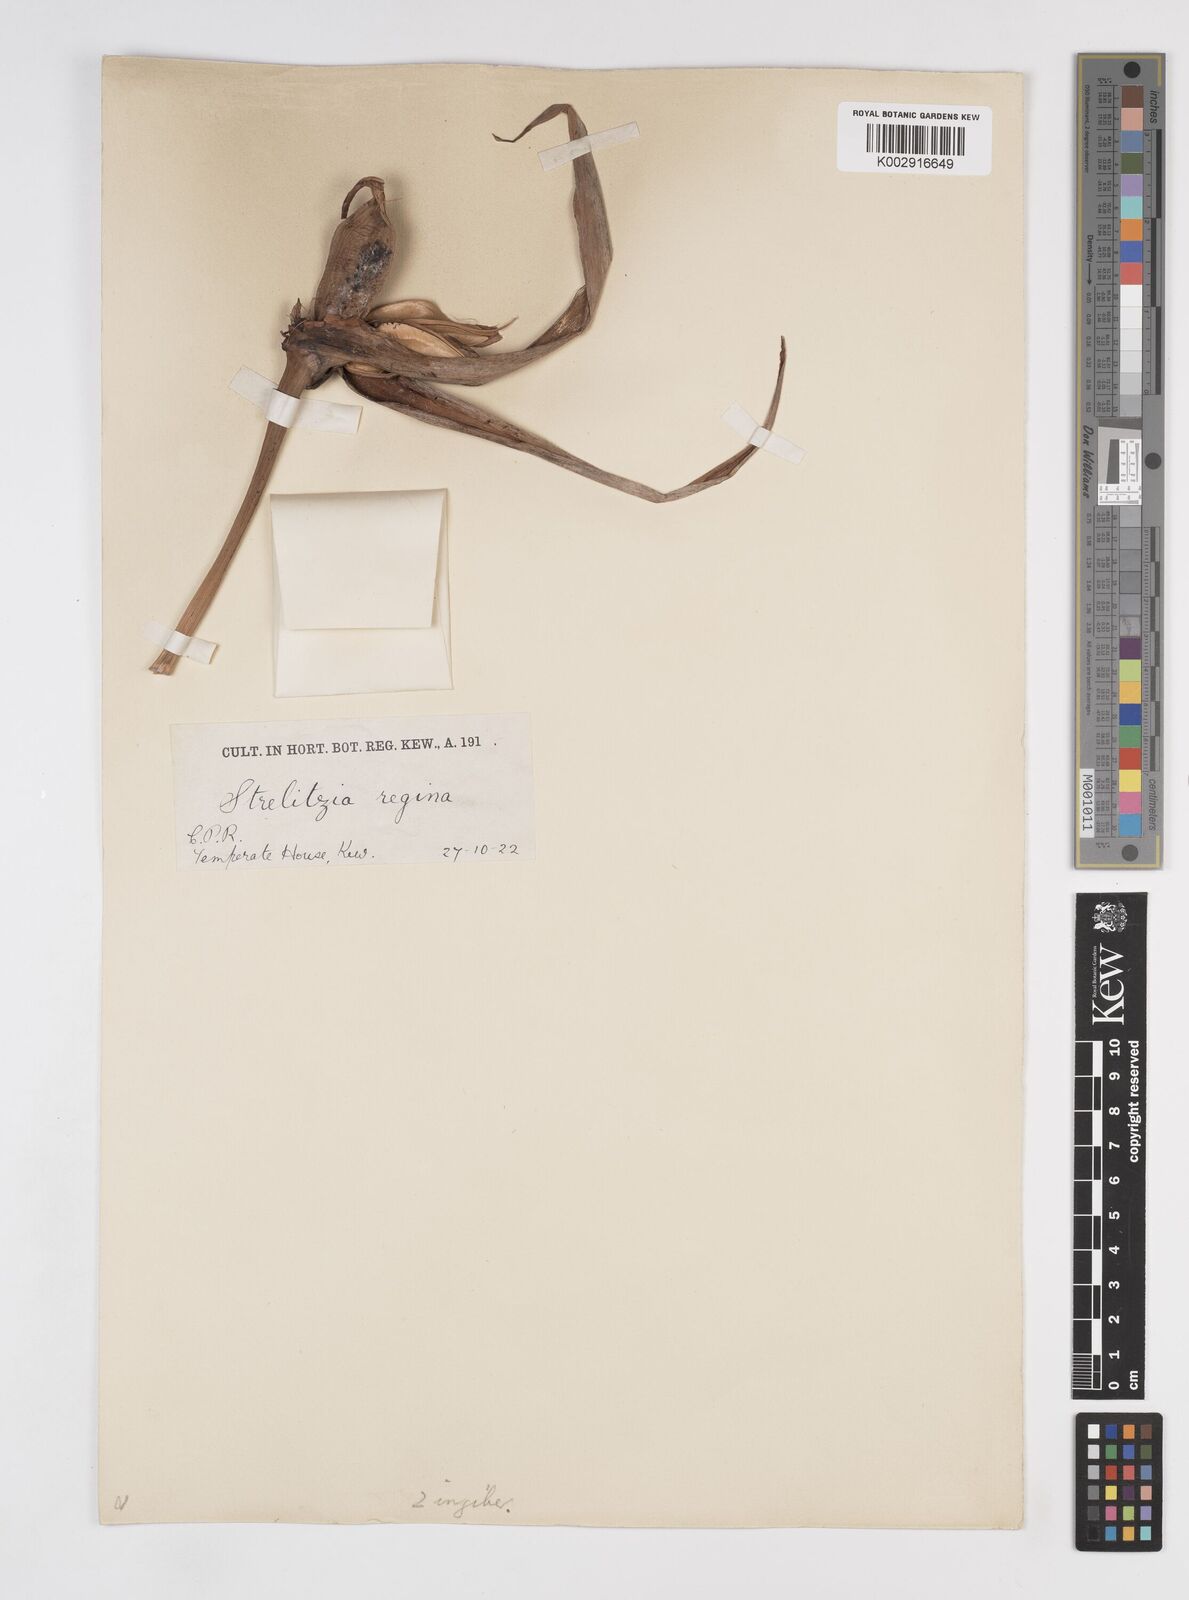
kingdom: Plantae
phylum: Tracheophyta
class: Liliopsida
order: Zingiberales
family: Strelitziaceae
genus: Strelitzia
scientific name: Strelitzia reginae
